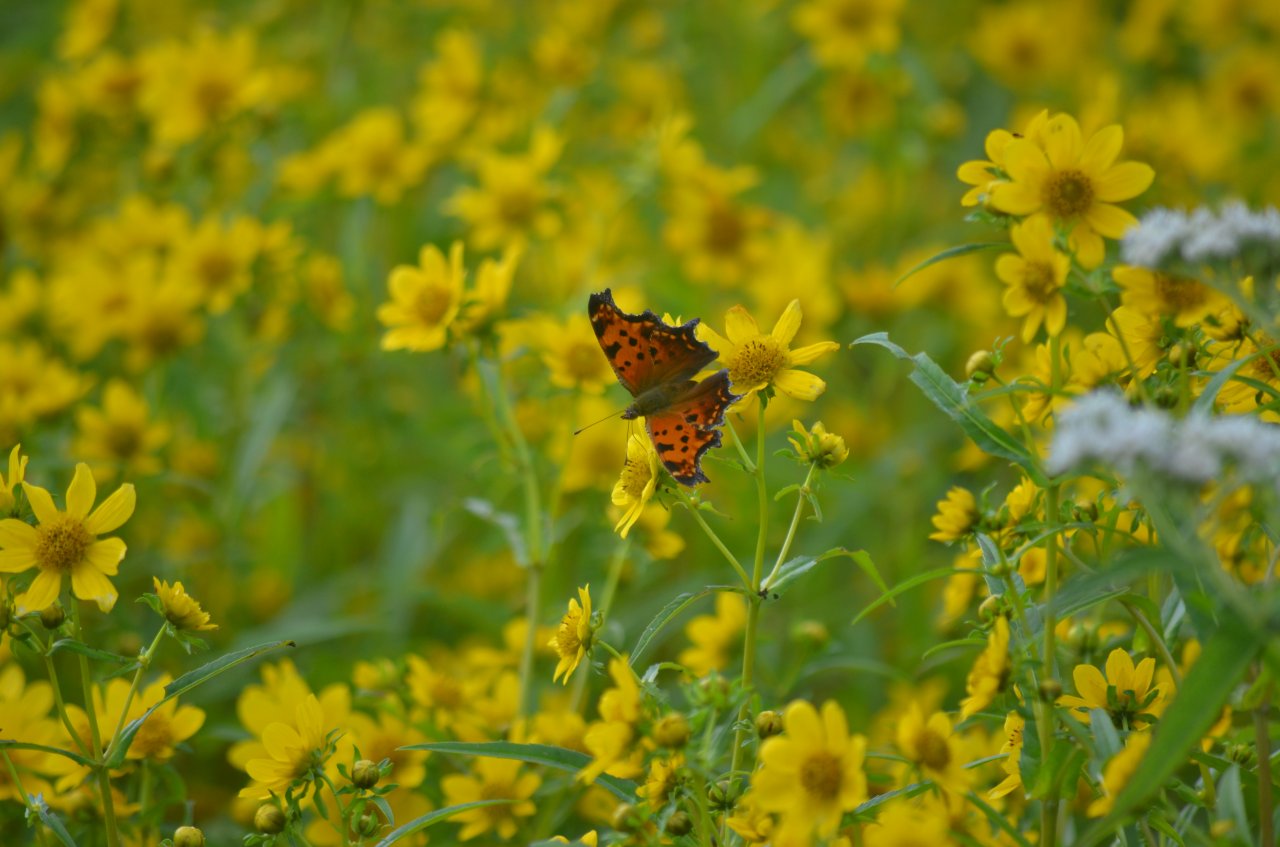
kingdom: Animalia
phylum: Arthropoda
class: Insecta
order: Lepidoptera
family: Nymphalidae
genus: Polygonia
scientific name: Polygonia comma
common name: Eastern Comma
